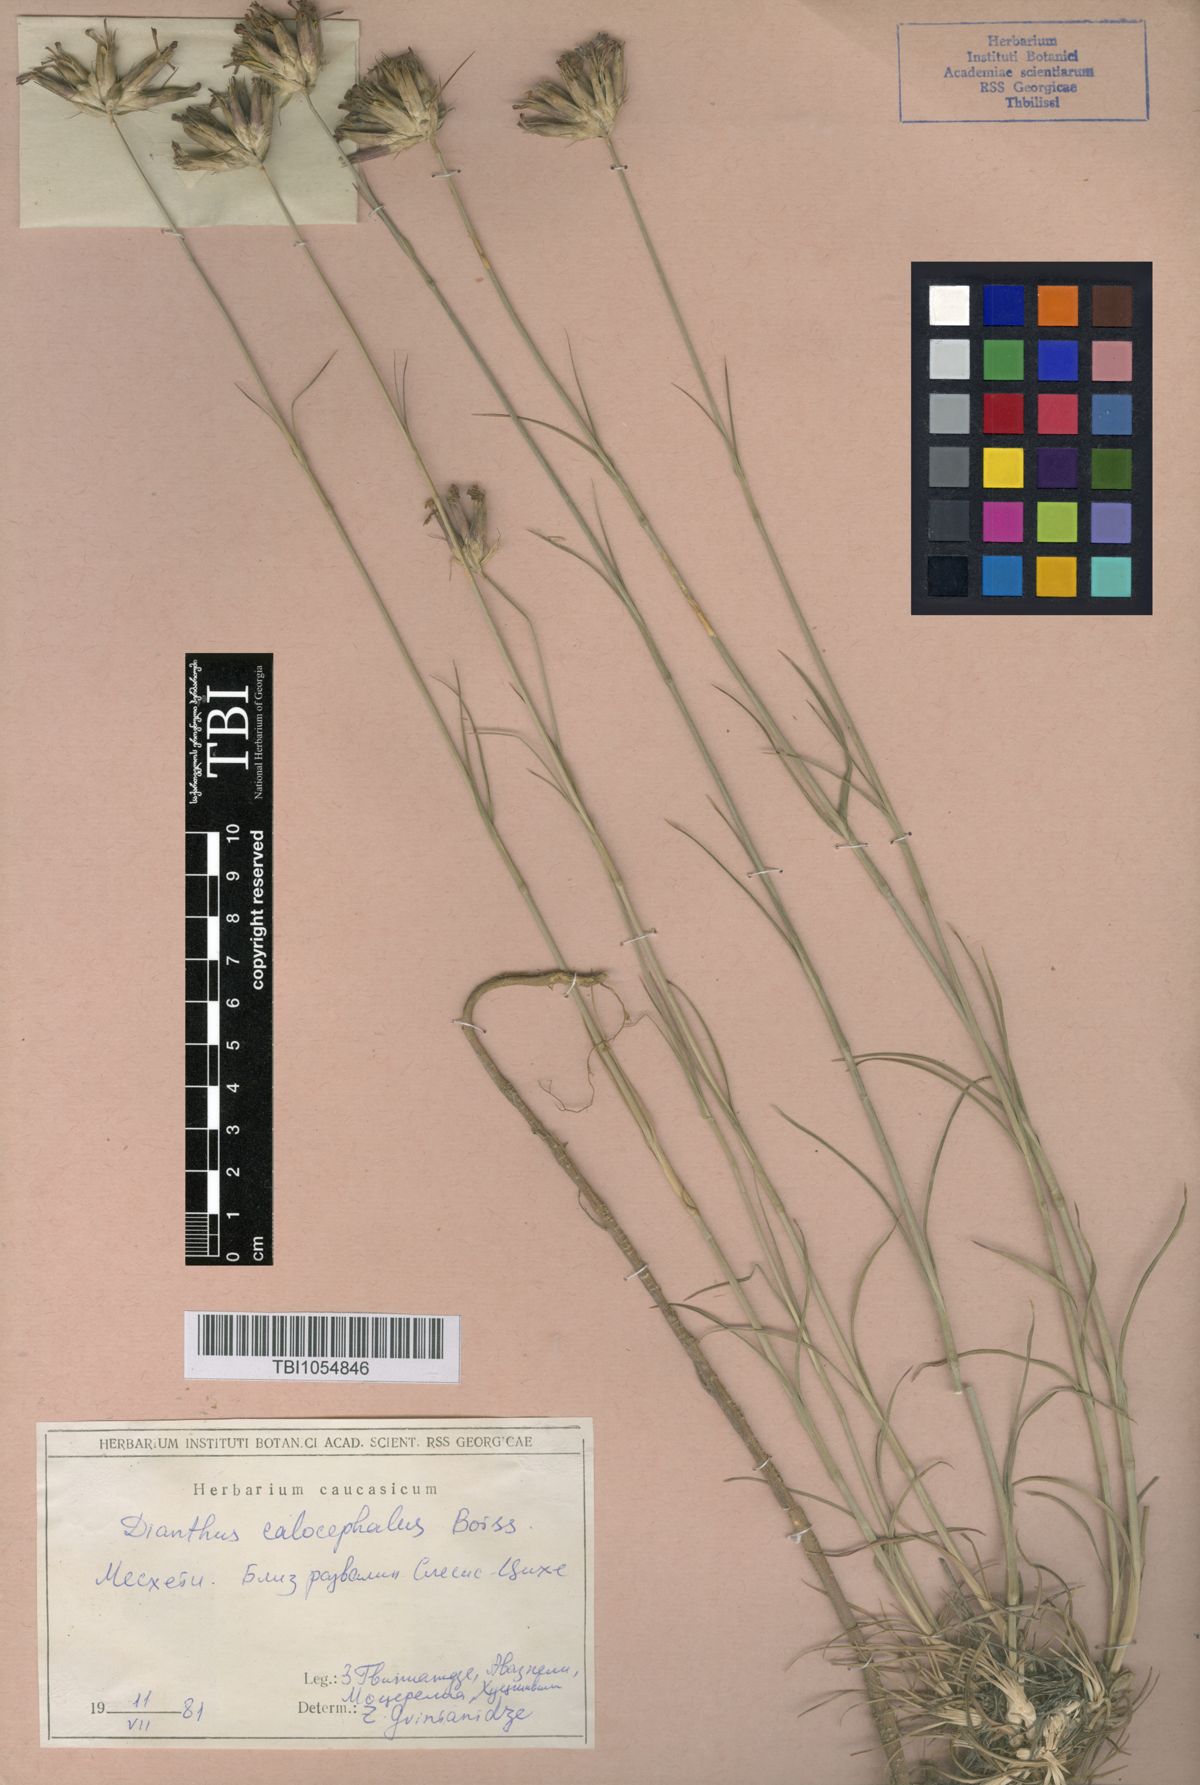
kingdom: Plantae
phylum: Tracheophyta
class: Magnoliopsida
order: Caryophyllales
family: Caryophyllaceae
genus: Dianthus
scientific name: Dianthus cruentus
